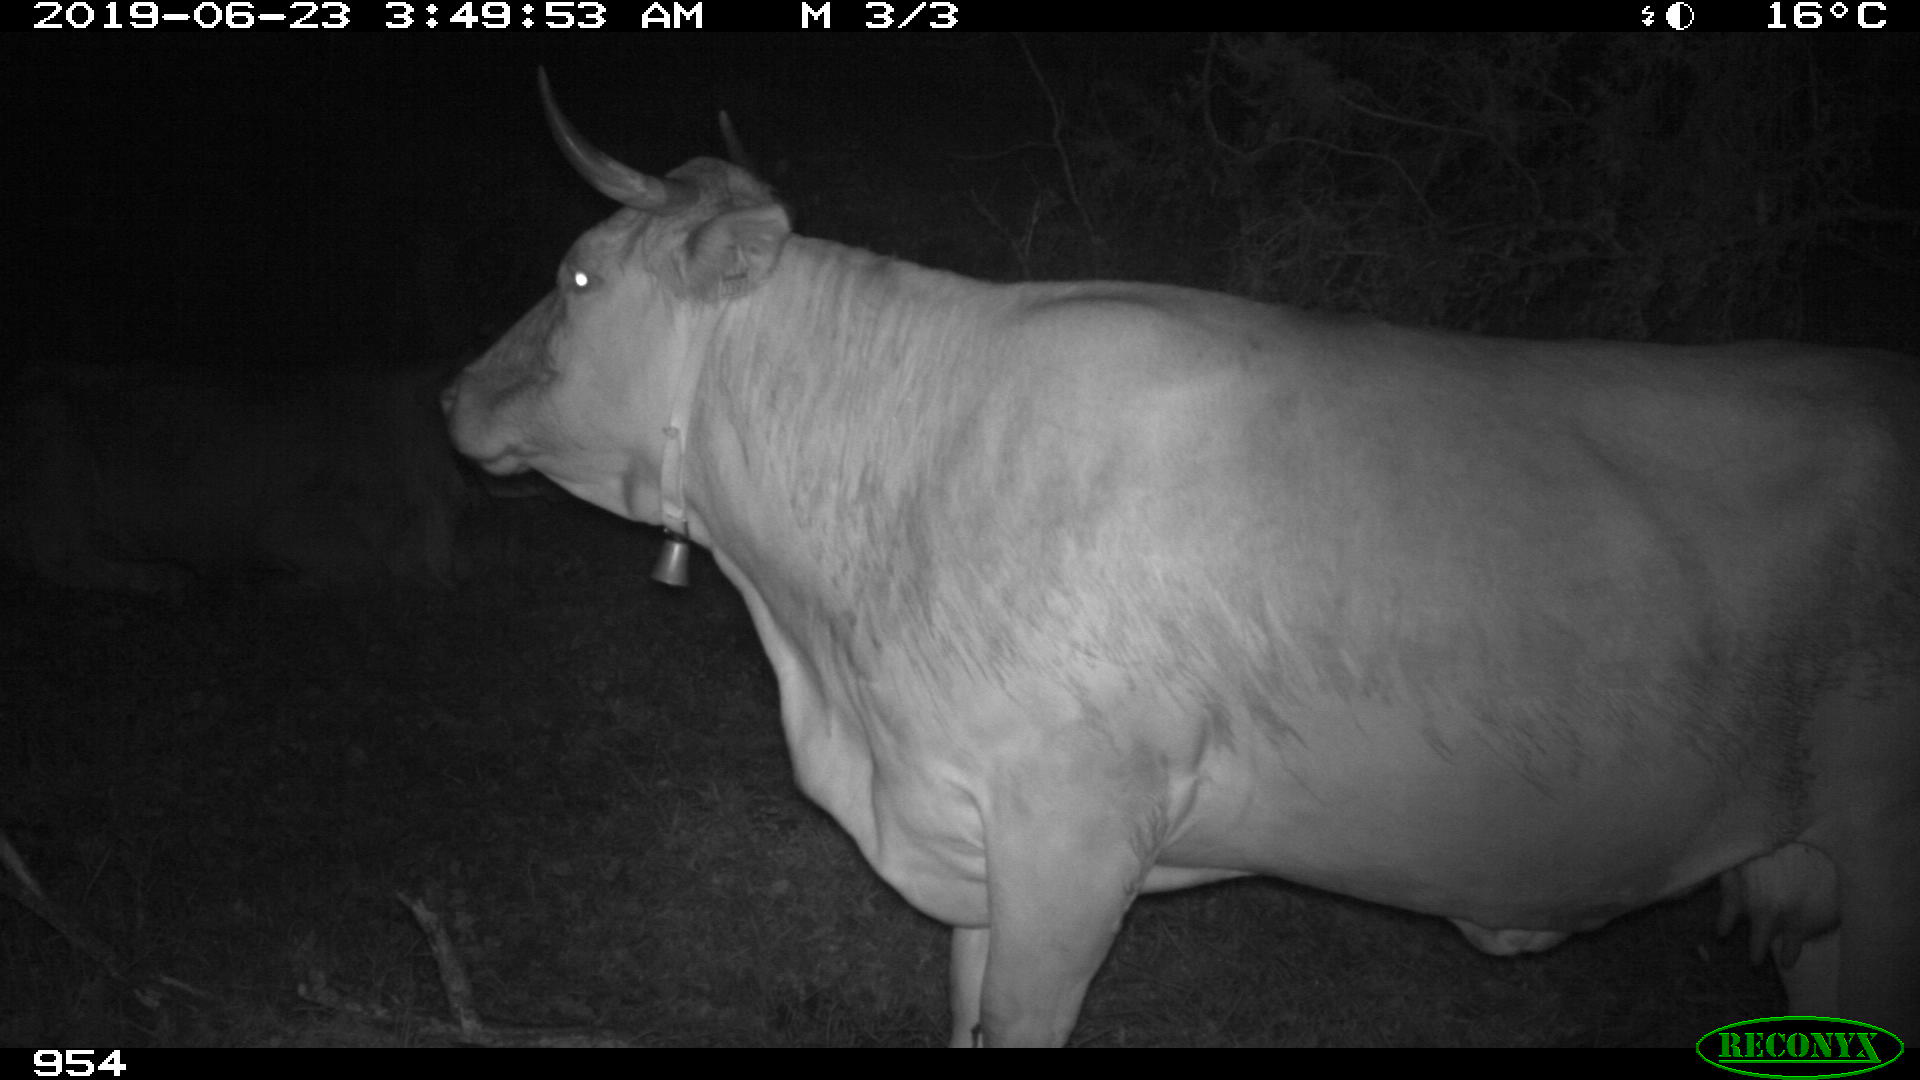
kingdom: Animalia
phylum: Chordata
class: Mammalia
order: Artiodactyla
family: Bovidae
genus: Bos
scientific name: Bos taurus
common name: Domesticated cattle
